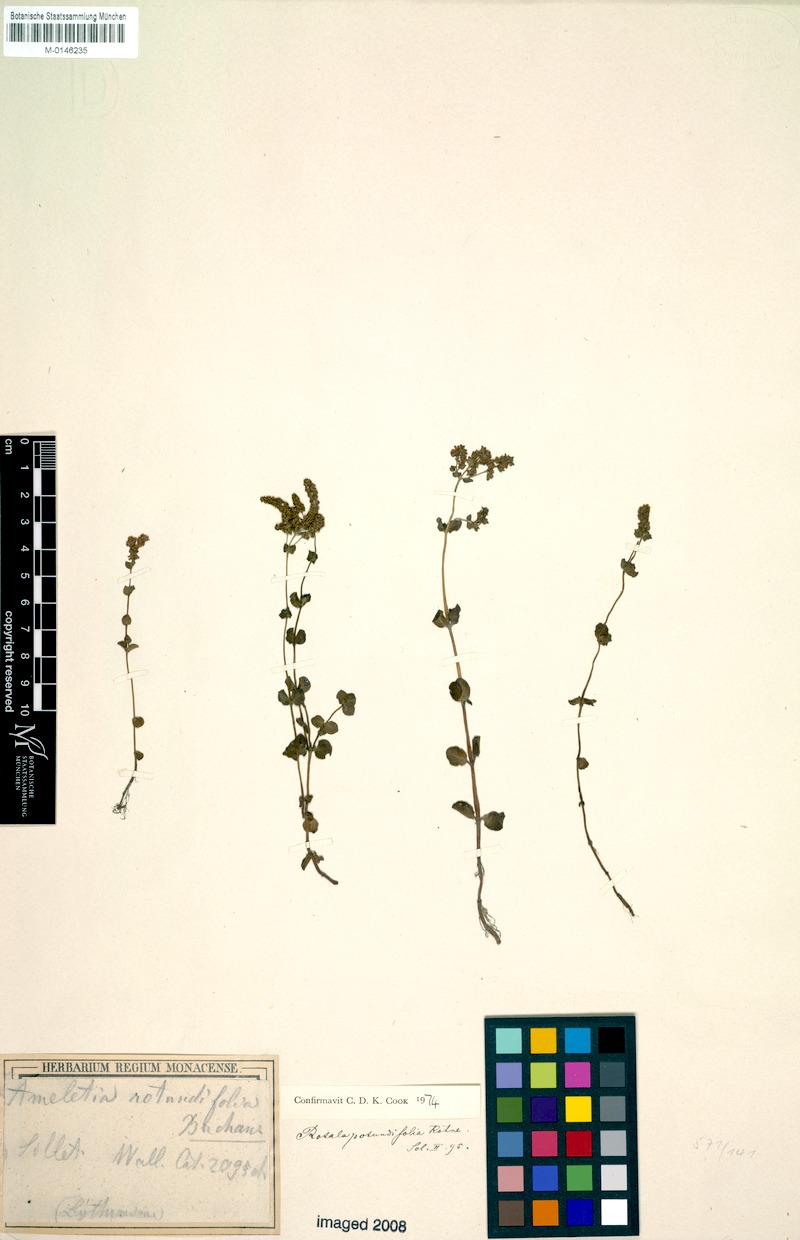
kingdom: Plantae
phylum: Tracheophyta
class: Magnoliopsida
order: Myrtales
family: Lythraceae
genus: Rotala
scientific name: Rotala rotundifolia
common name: Roundleaf toothcup
